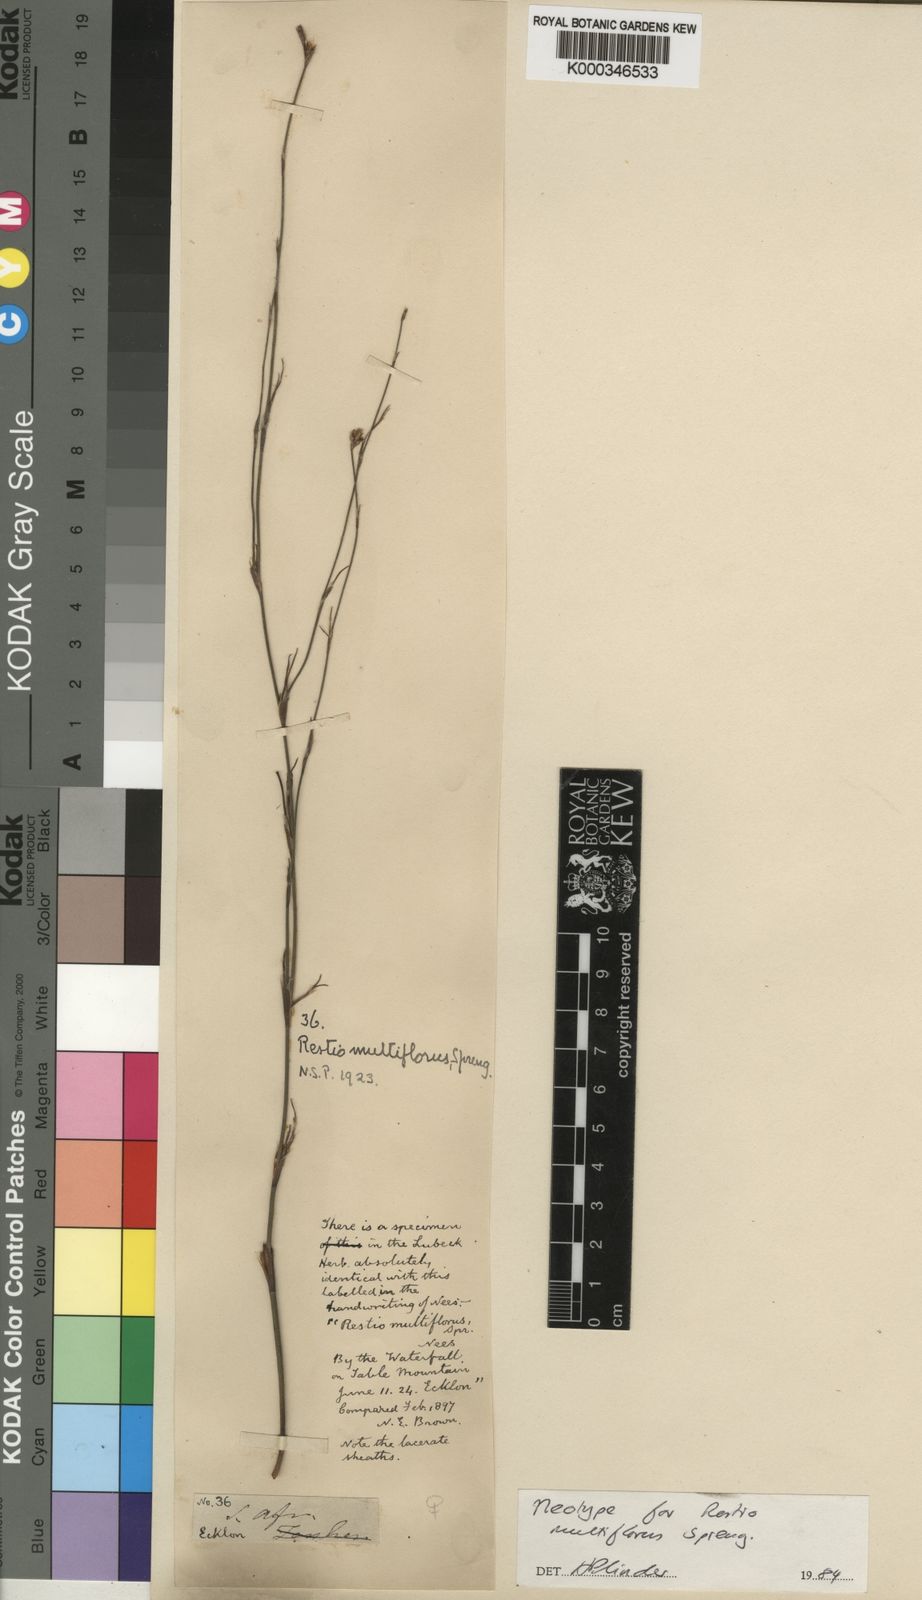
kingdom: Plantae
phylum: Tracheophyta
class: Liliopsida
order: Poales
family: Restionaceae
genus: Restio
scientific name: Restio multiflorus
